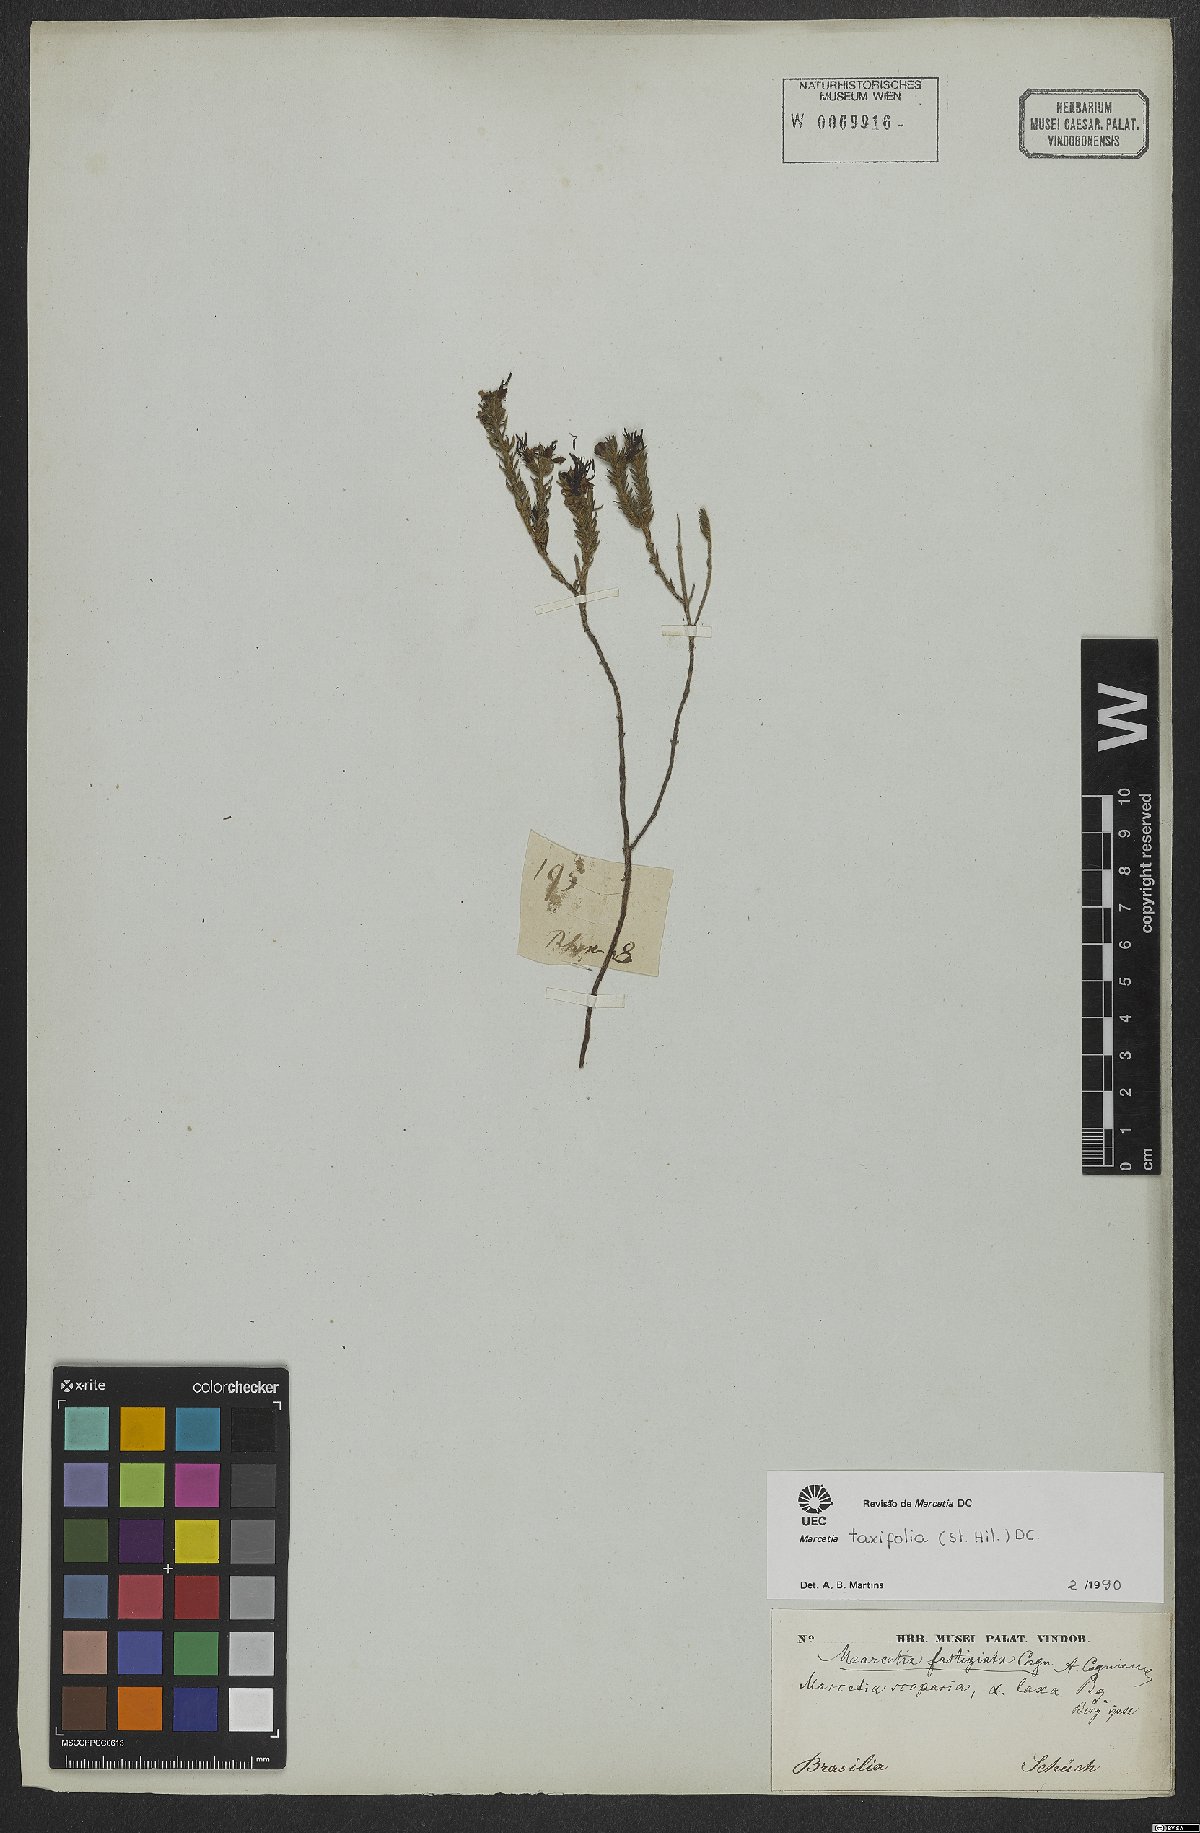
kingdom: Plantae
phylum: Tracheophyta
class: Magnoliopsida
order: Myrtales
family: Melastomataceae
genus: Marcetia
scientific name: Marcetia taxifolia
